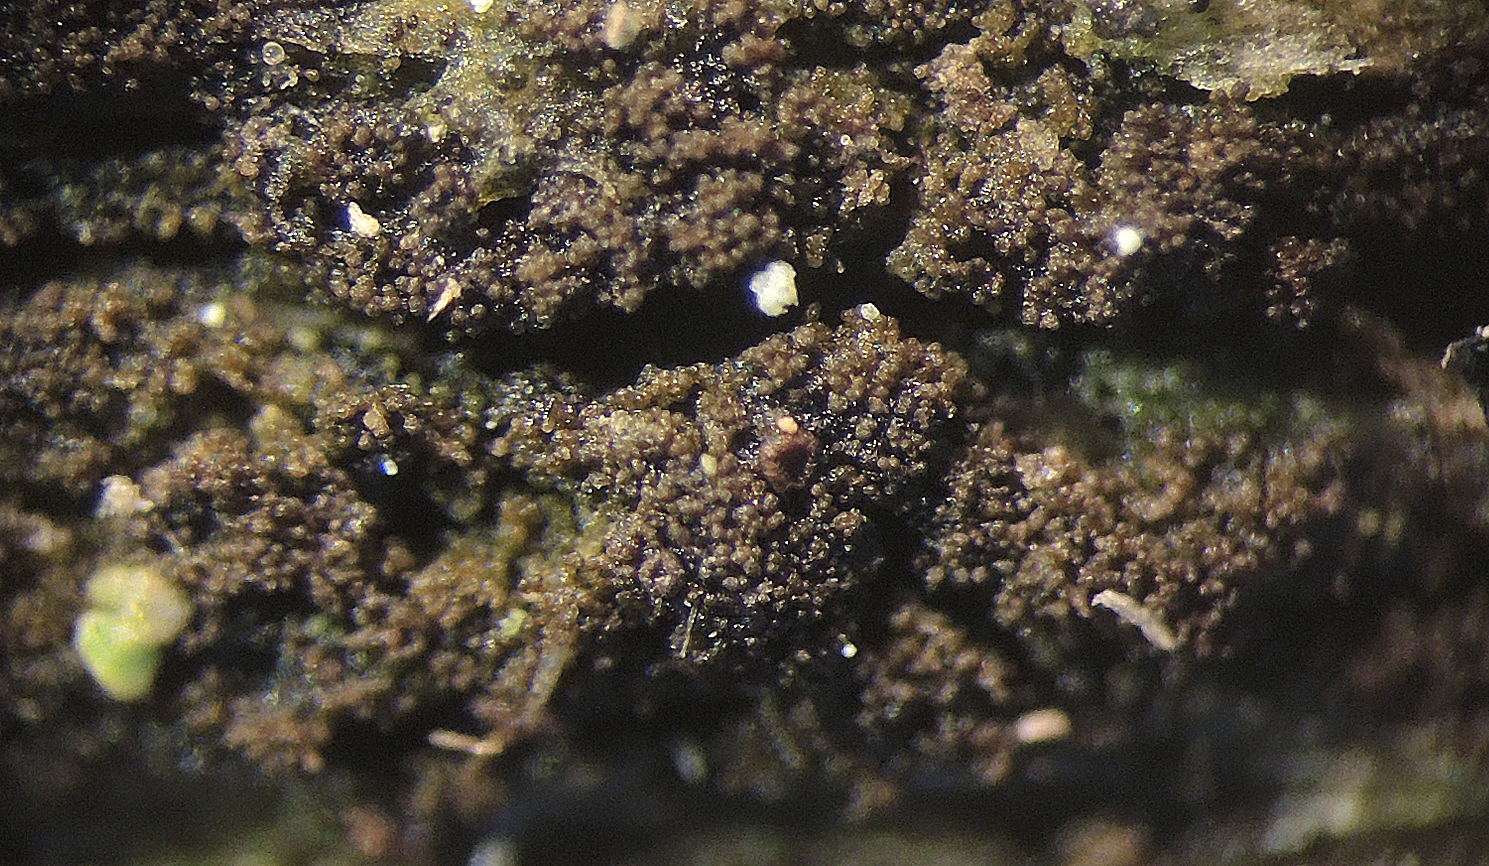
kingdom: Fungi
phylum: Ascomycota
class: Lecanoromycetes
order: Baeomycetales
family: Trapeliaceae
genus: Farkasiella
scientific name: Farkasiella gelatinosa
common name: gele-skivelav
